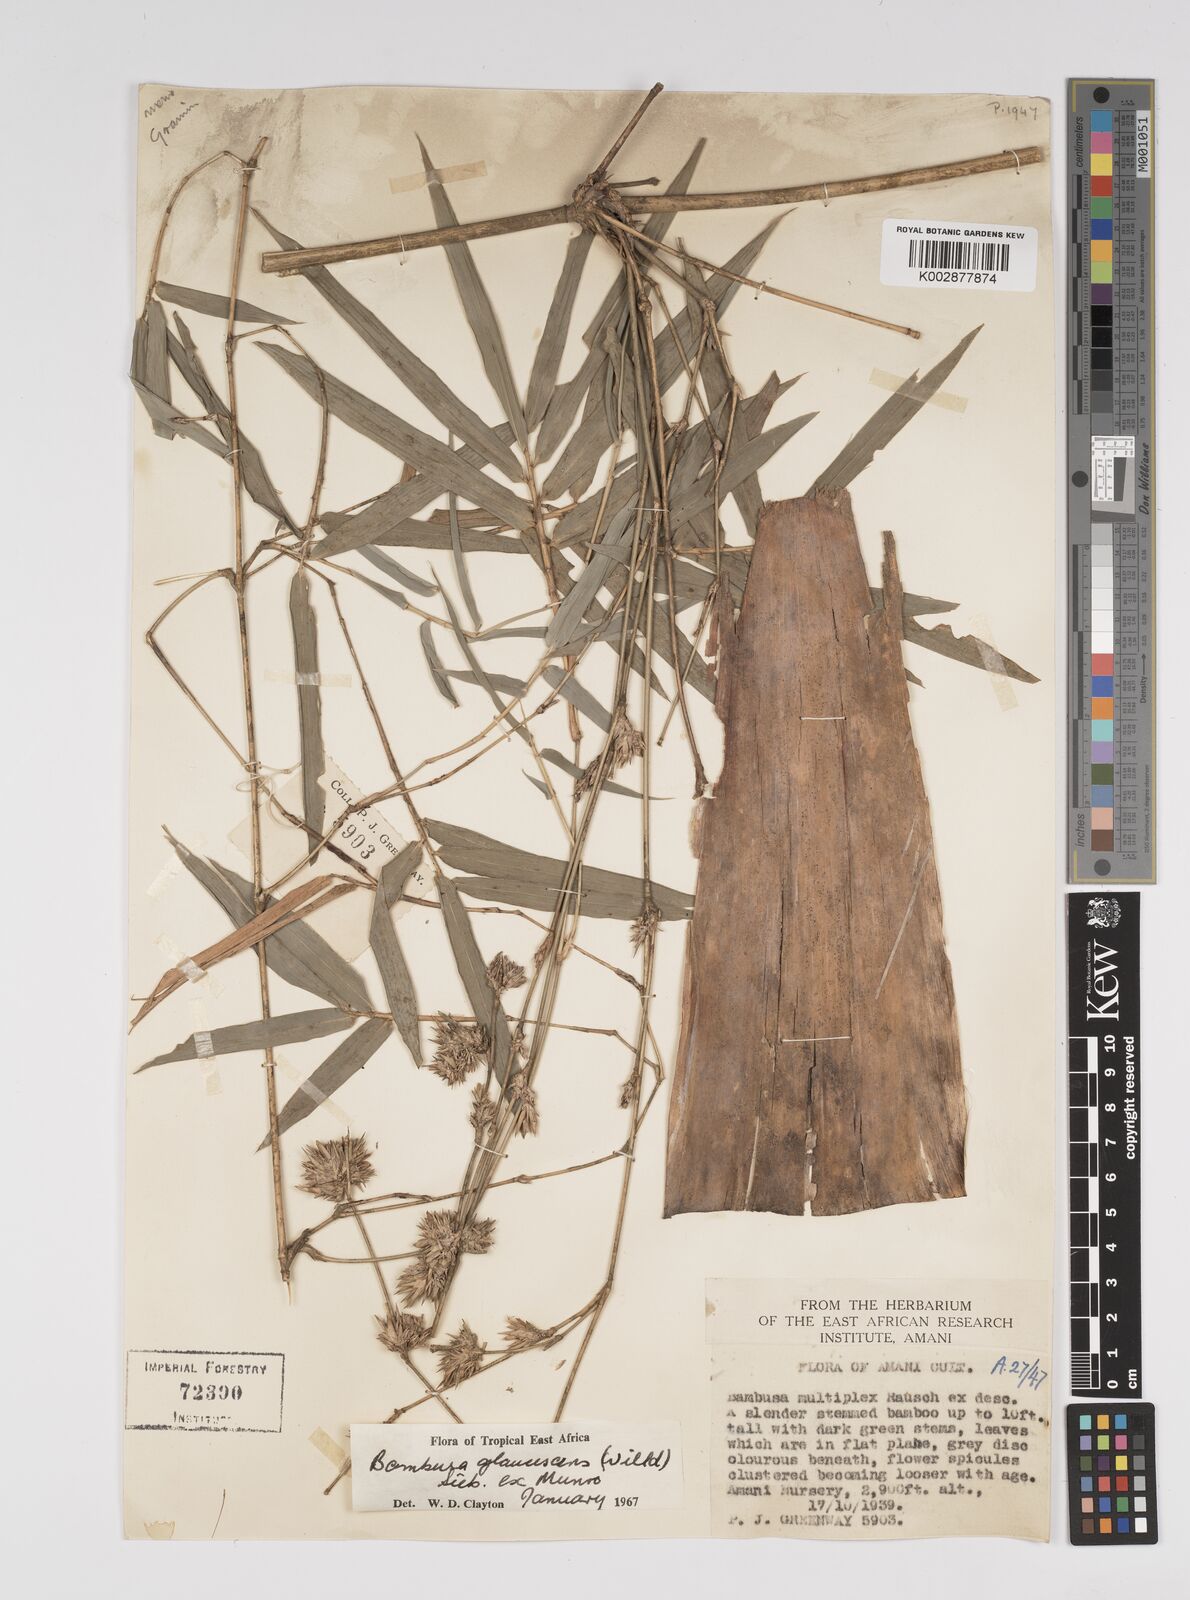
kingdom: Plantae
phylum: Tracheophyta
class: Liliopsida
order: Poales
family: Poaceae
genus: Bambusa
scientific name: Bambusa multiplex
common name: Hedge bamboo
